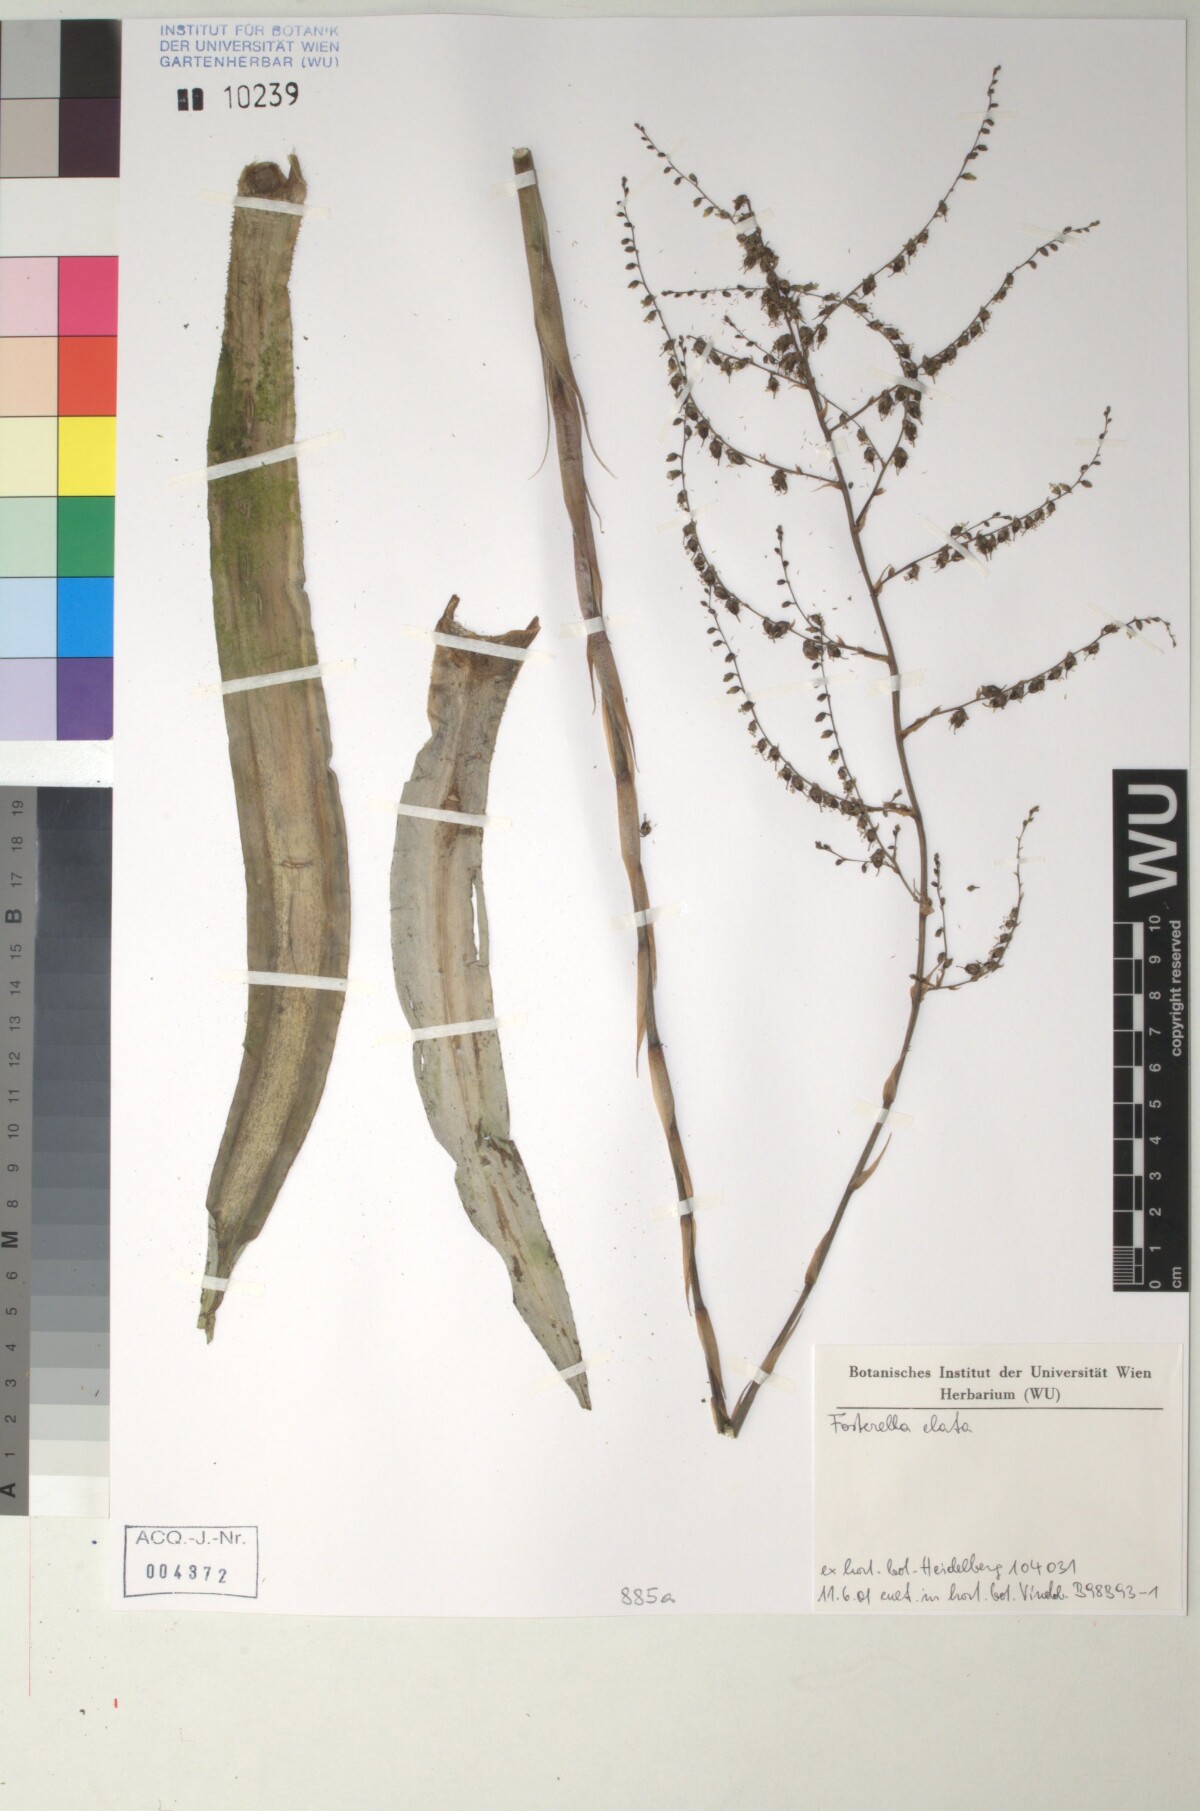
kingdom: Plantae
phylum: Tracheophyta
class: Liliopsida
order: Poales
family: Bromeliaceae
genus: Fosterella
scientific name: Fosterella rusbyi
